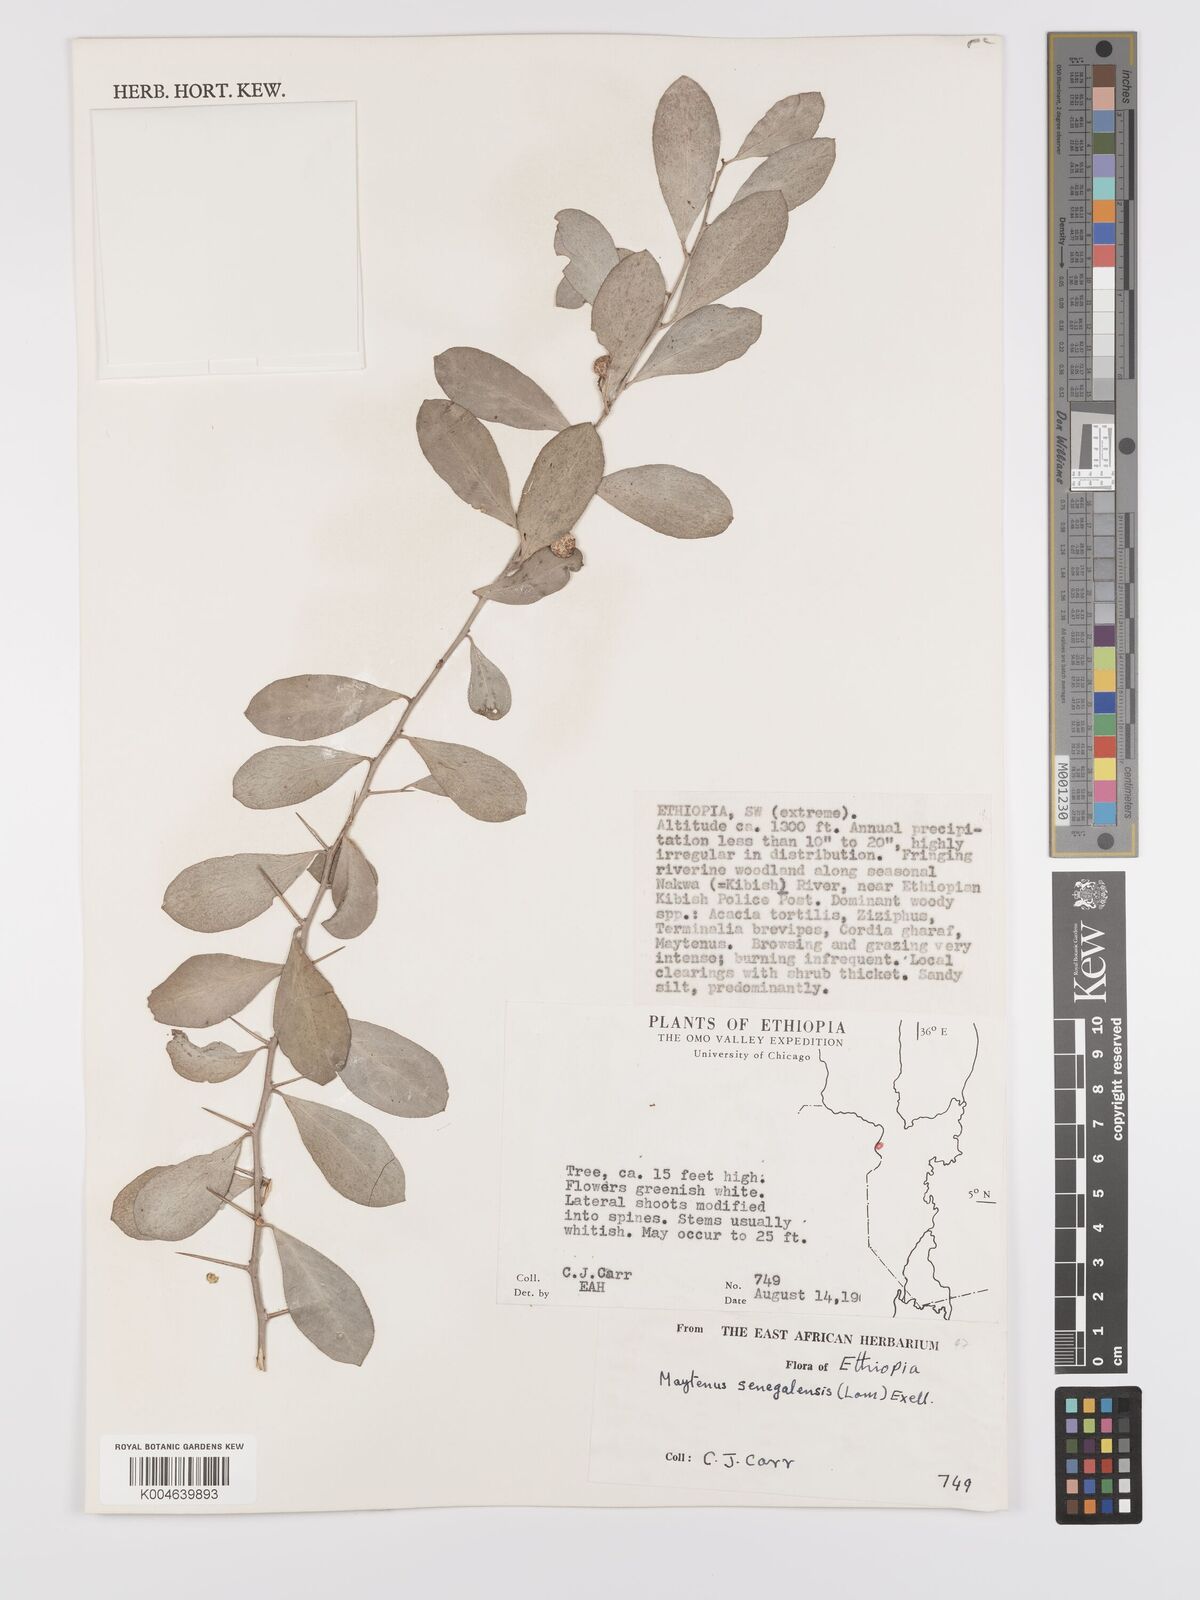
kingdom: Plantae
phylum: Tracheophyta
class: Magnoliopsida
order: Celastrales
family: Celastraceae
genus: Gymnosporia
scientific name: Gymnosporia senegalensis
